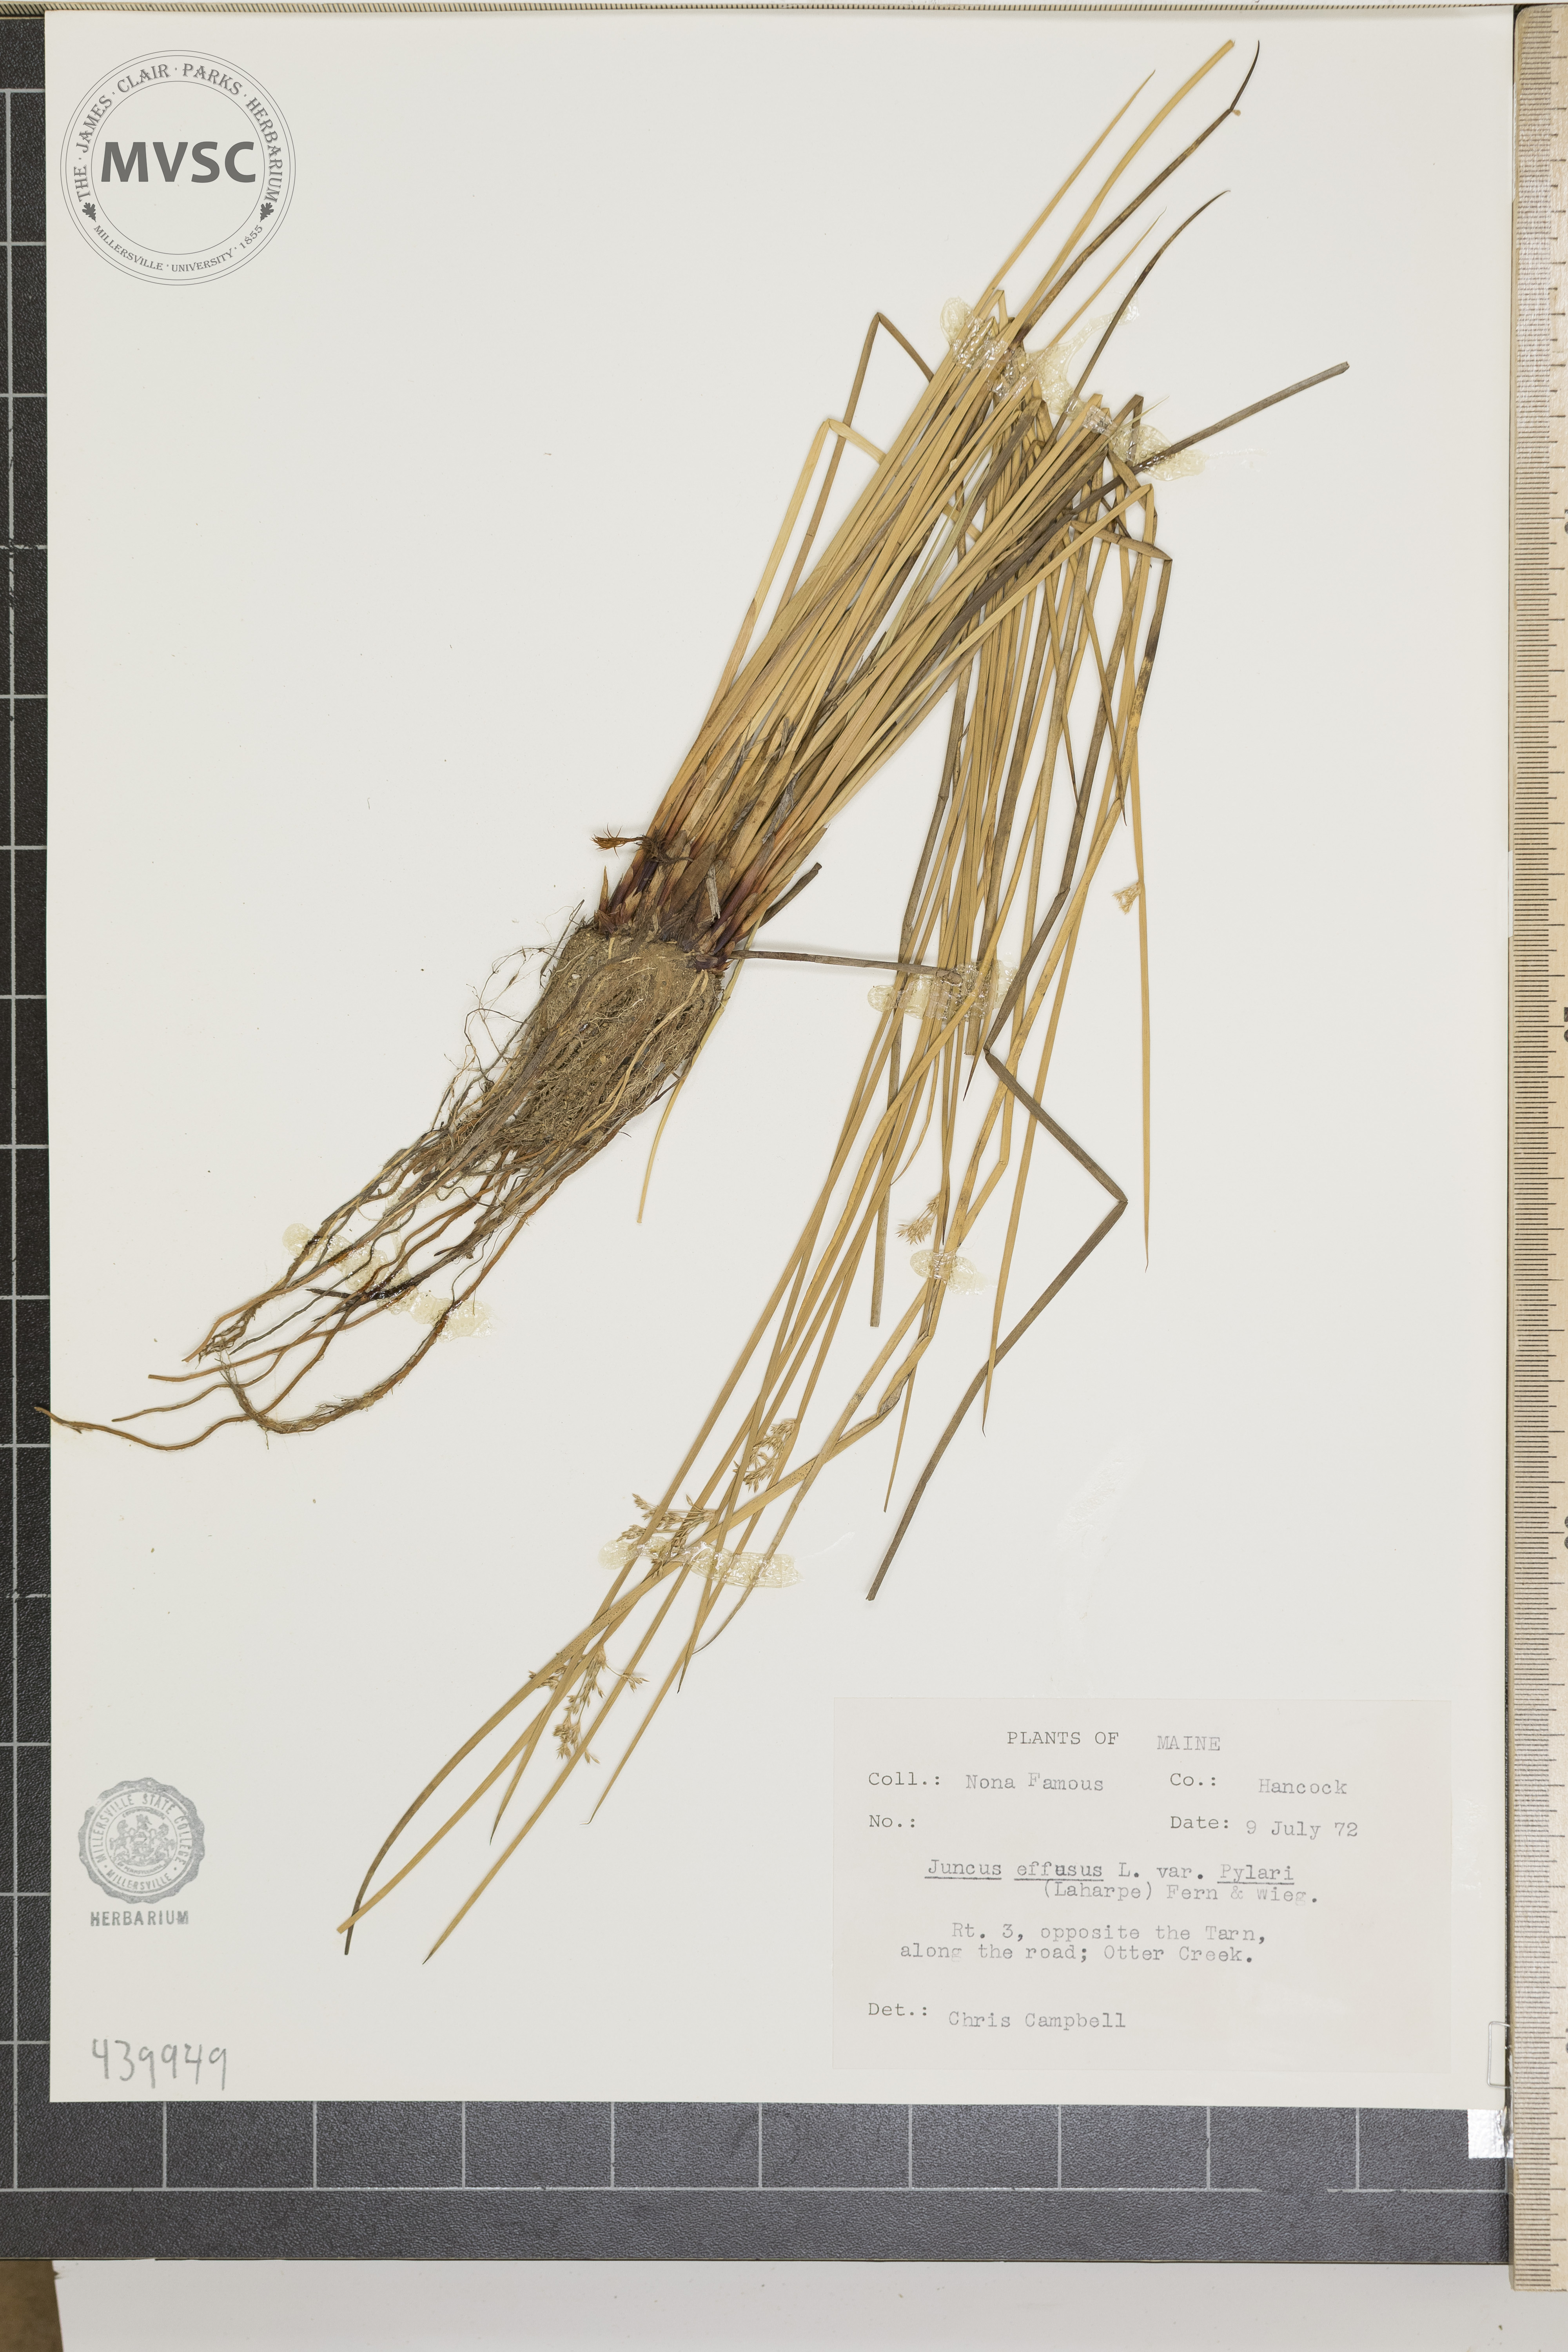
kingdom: Plantae
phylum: Tracheophyta
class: Liliopsida
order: Poales
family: Juncaceae
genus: Juncus
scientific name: Juncus effusus
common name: Soft rush
